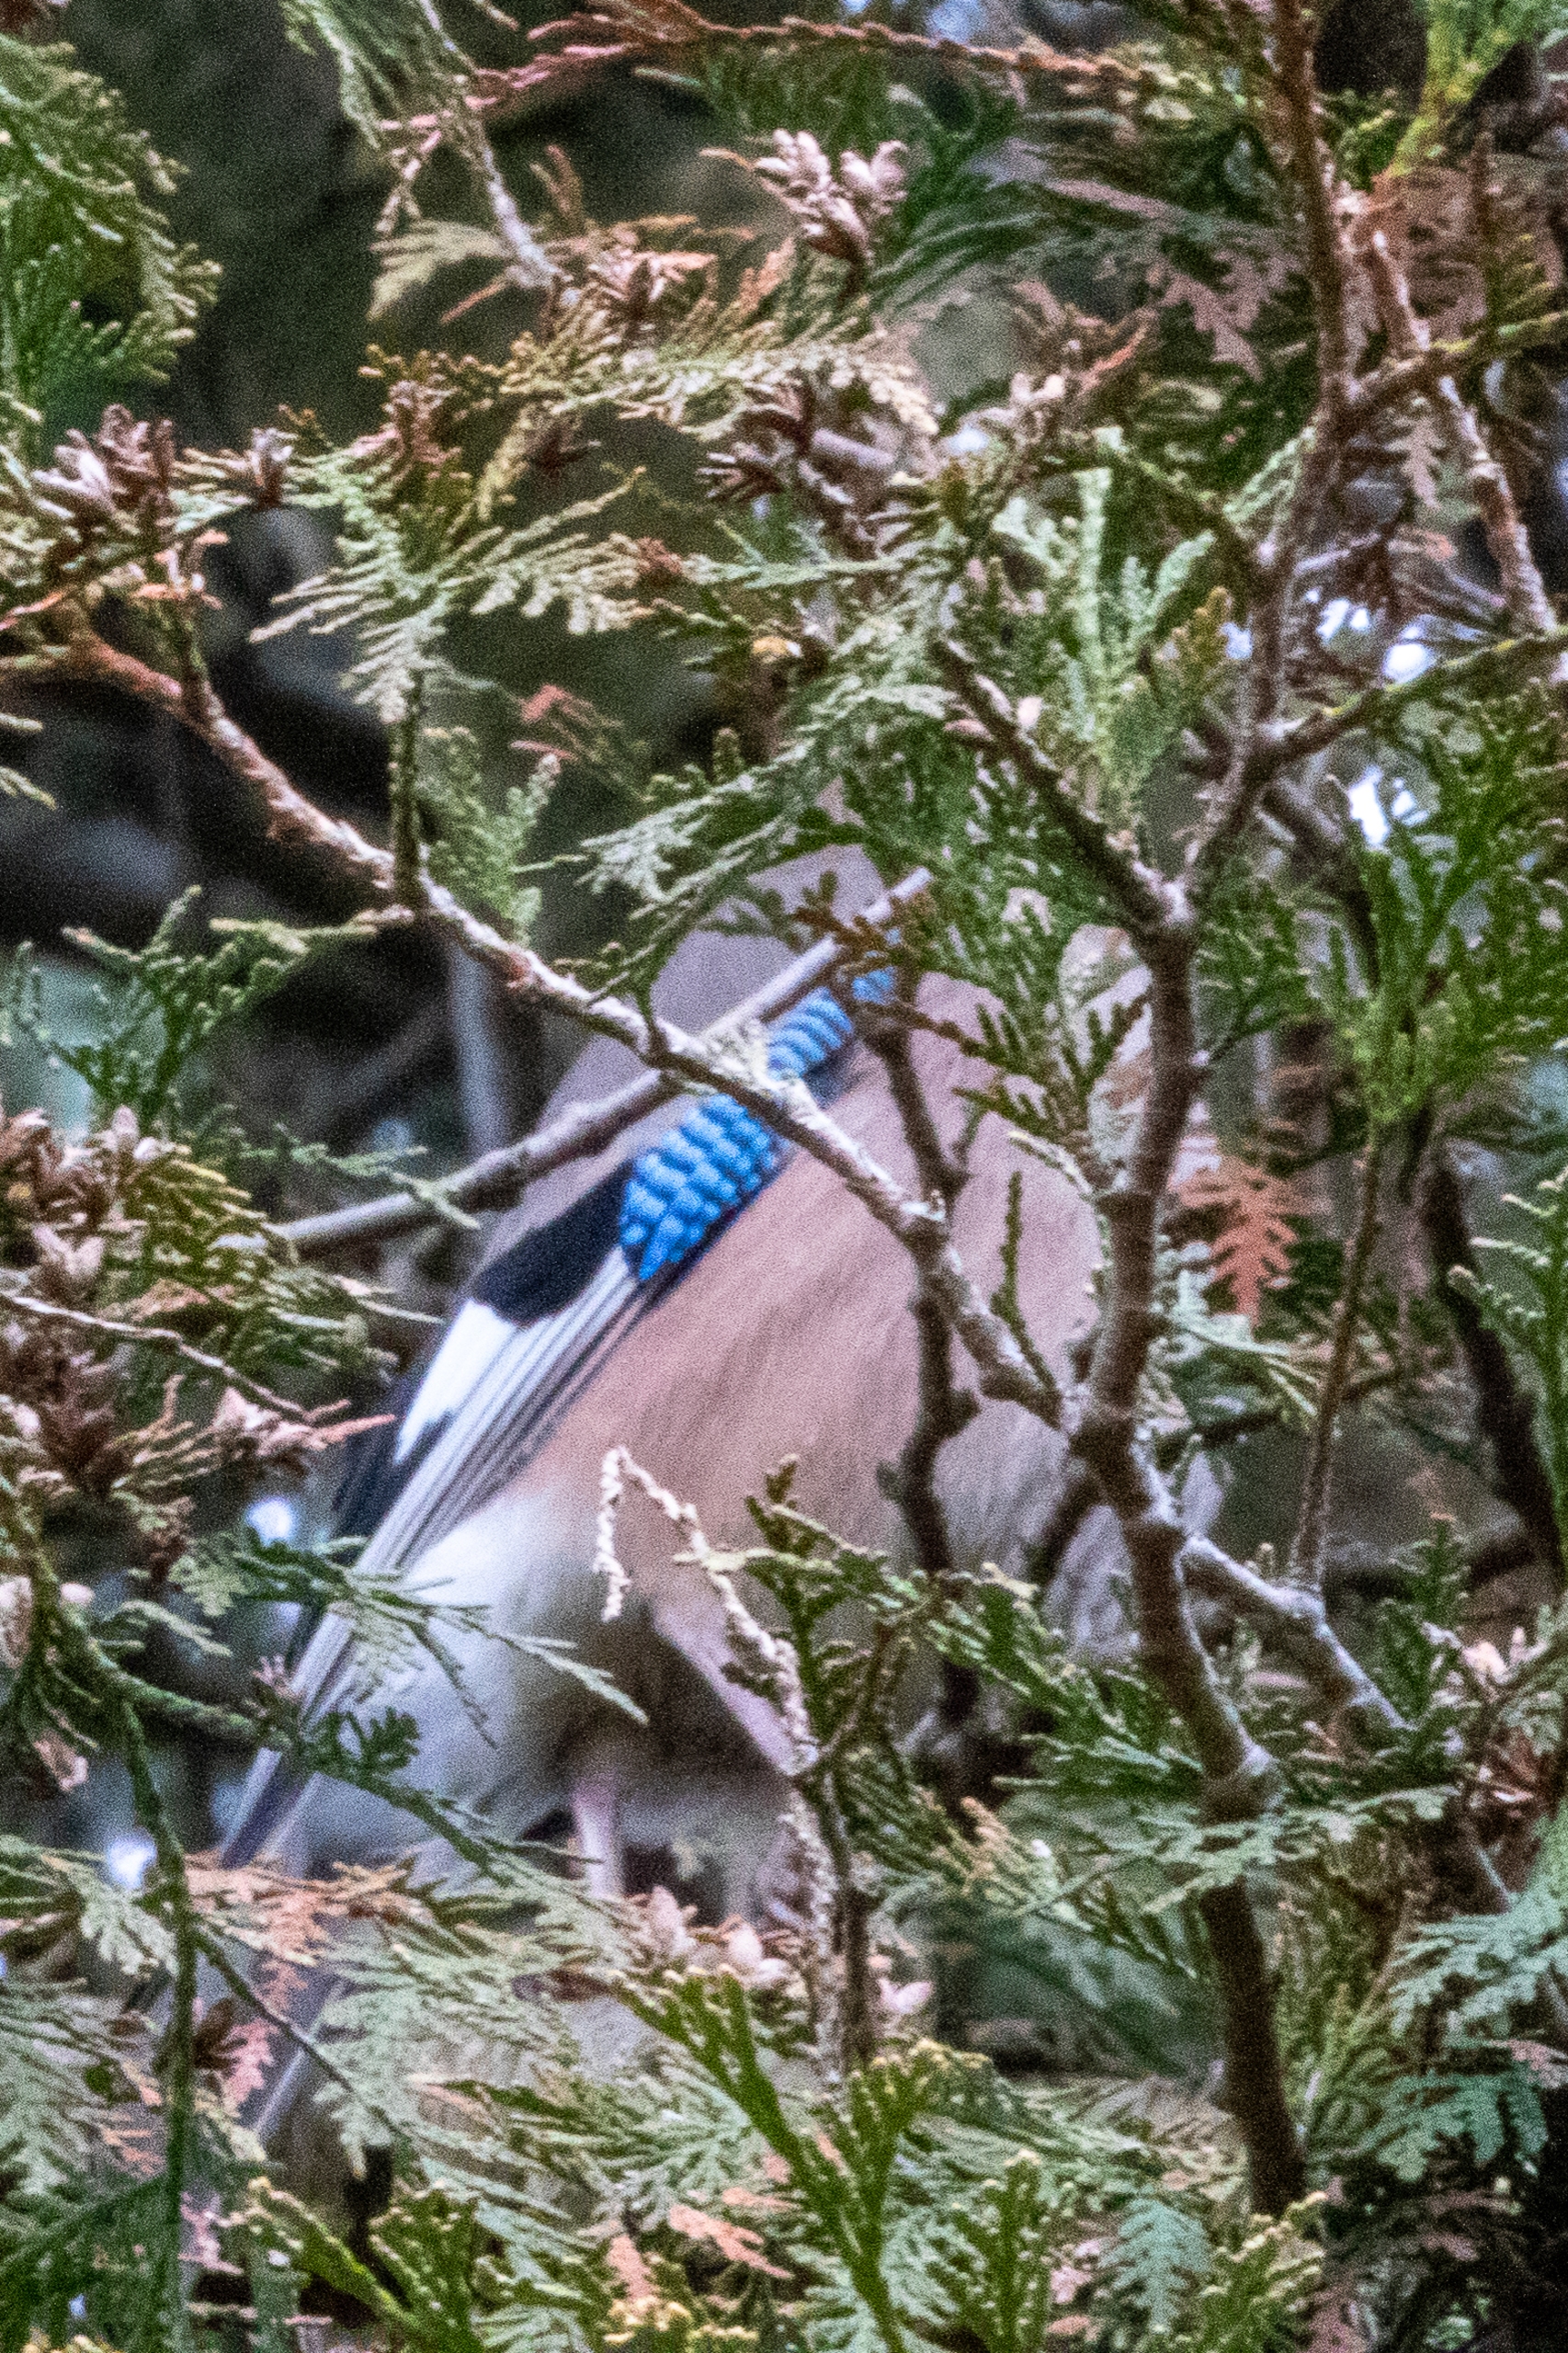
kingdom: Animalia
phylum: Chordata
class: Aves
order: Passeriformes
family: Corvidae
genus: Garrulus
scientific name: Garrulus glandarius
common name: Skovskade
